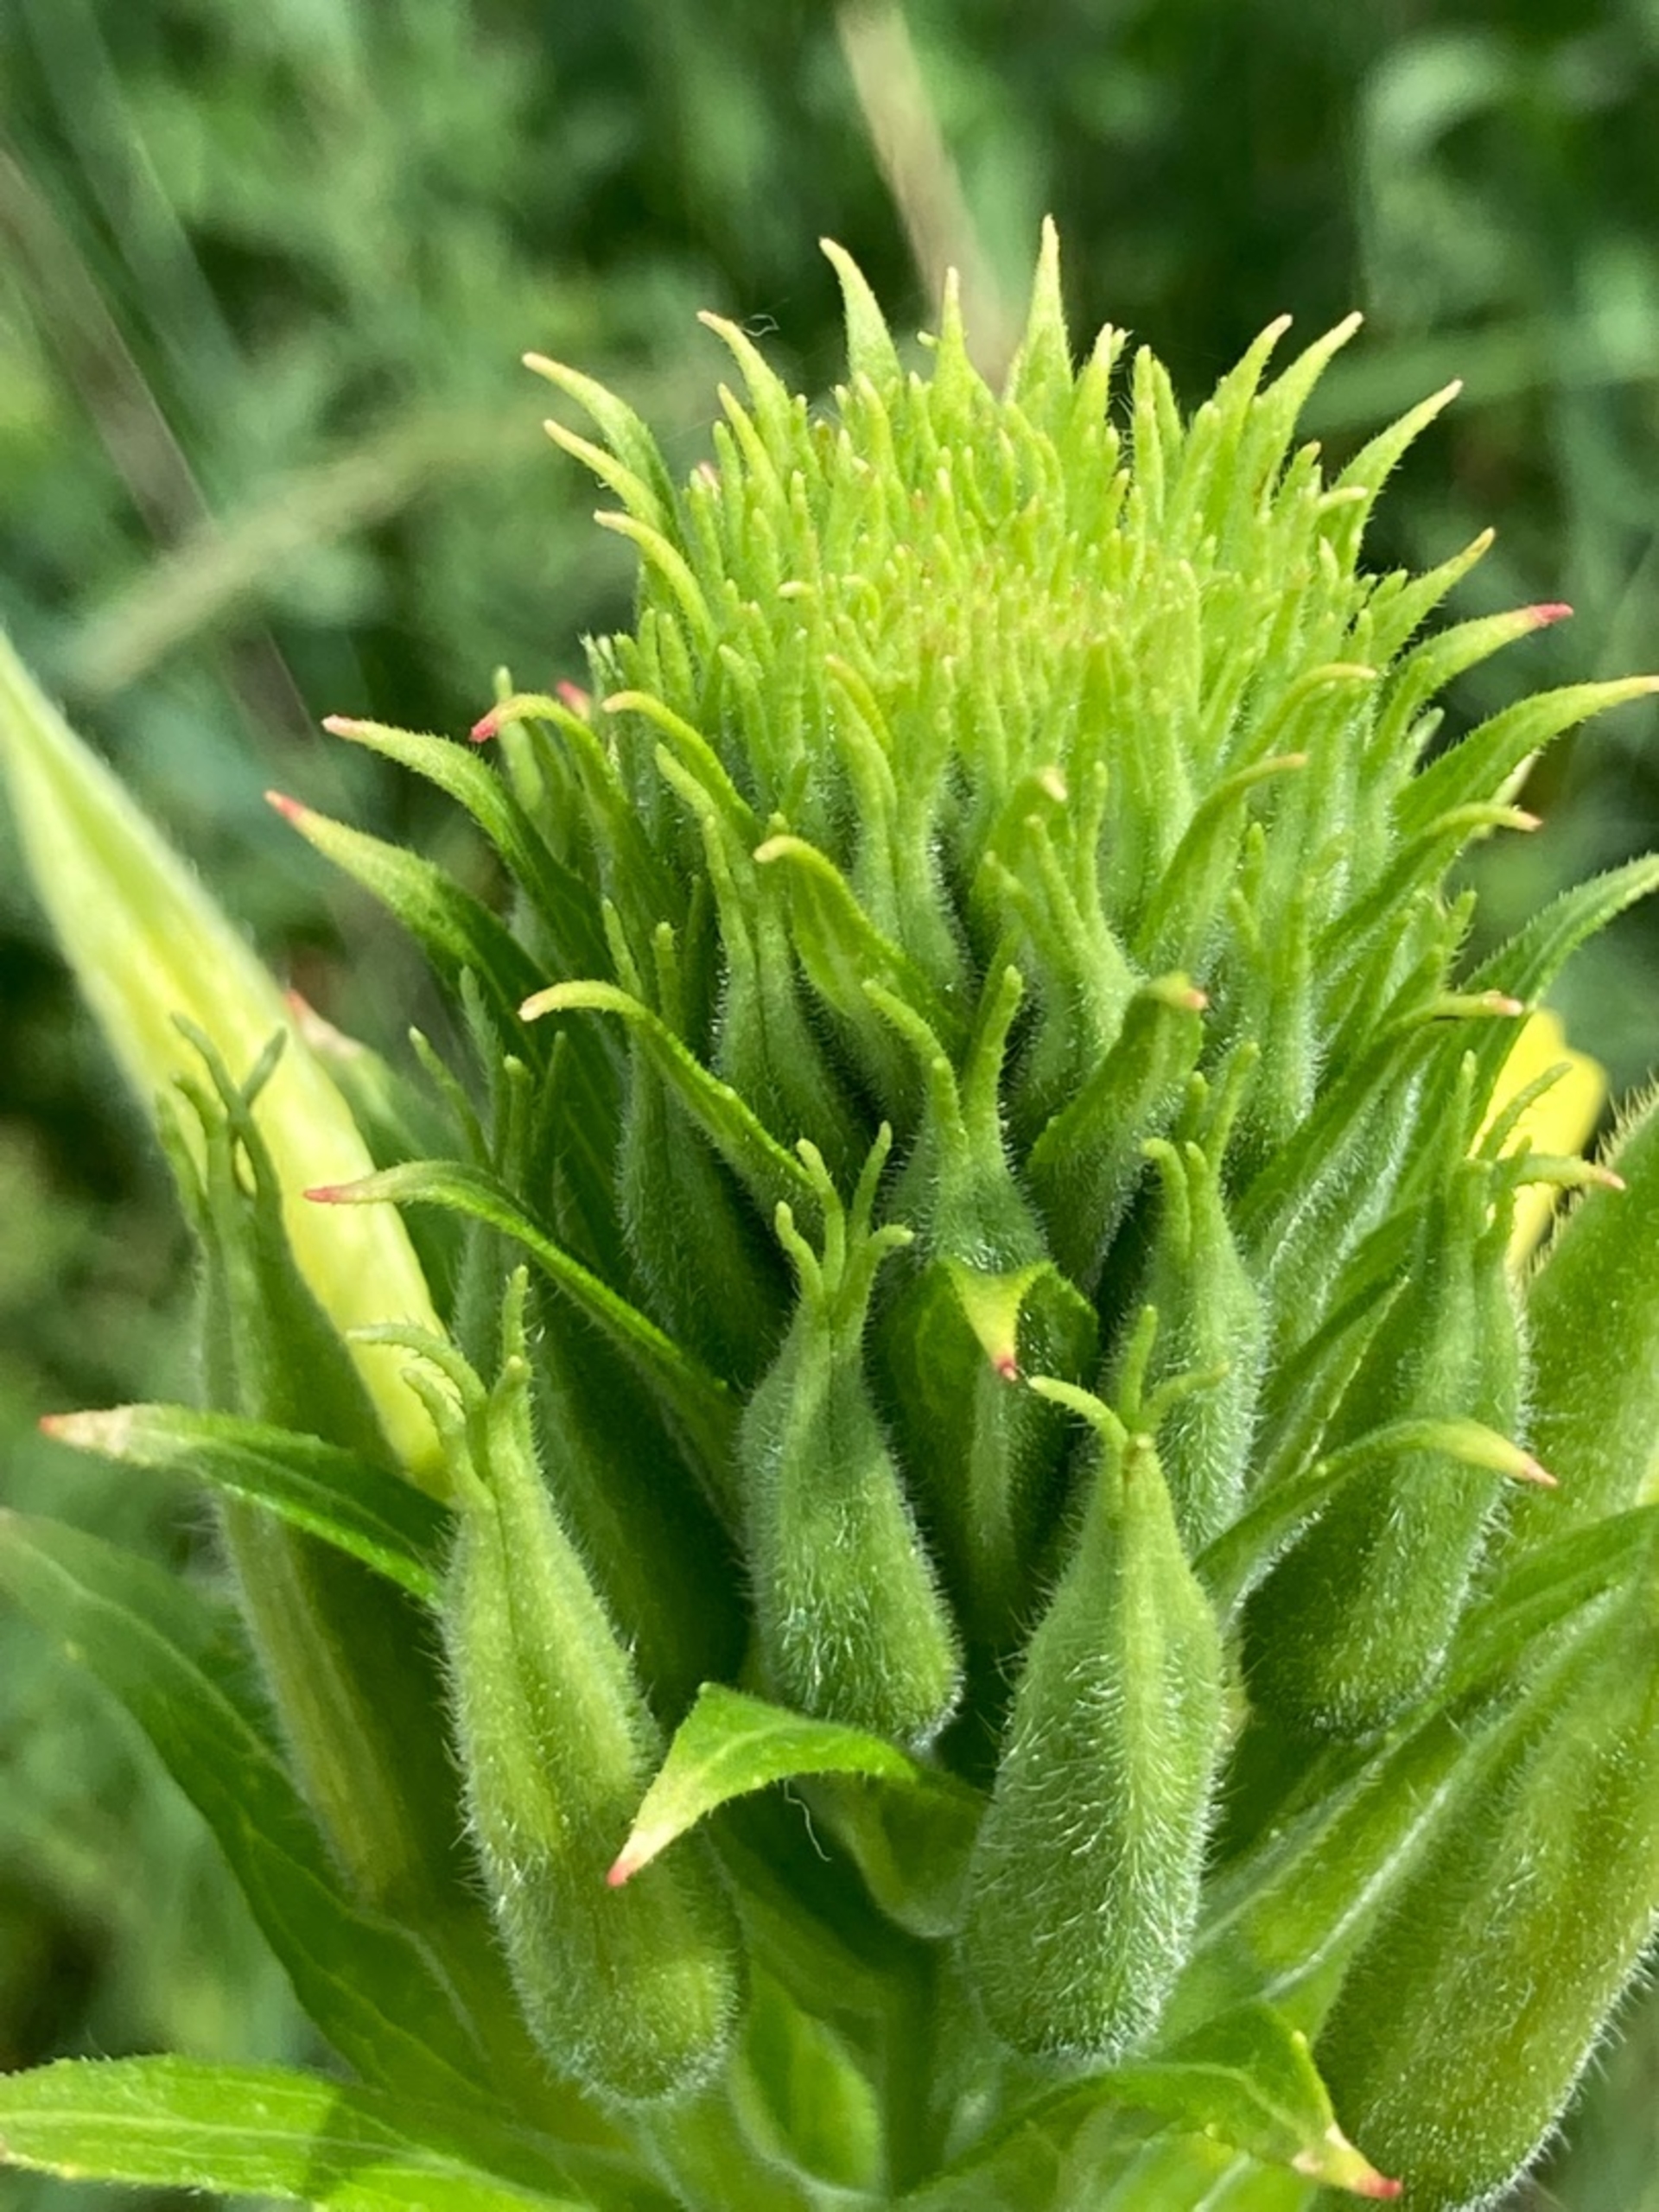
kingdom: Plantae
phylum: Tracheophyta
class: Magnoliopsida
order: Myrtales
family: Onagraceae
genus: Oenothera
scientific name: Oenothera biennis
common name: Toårig natlys
